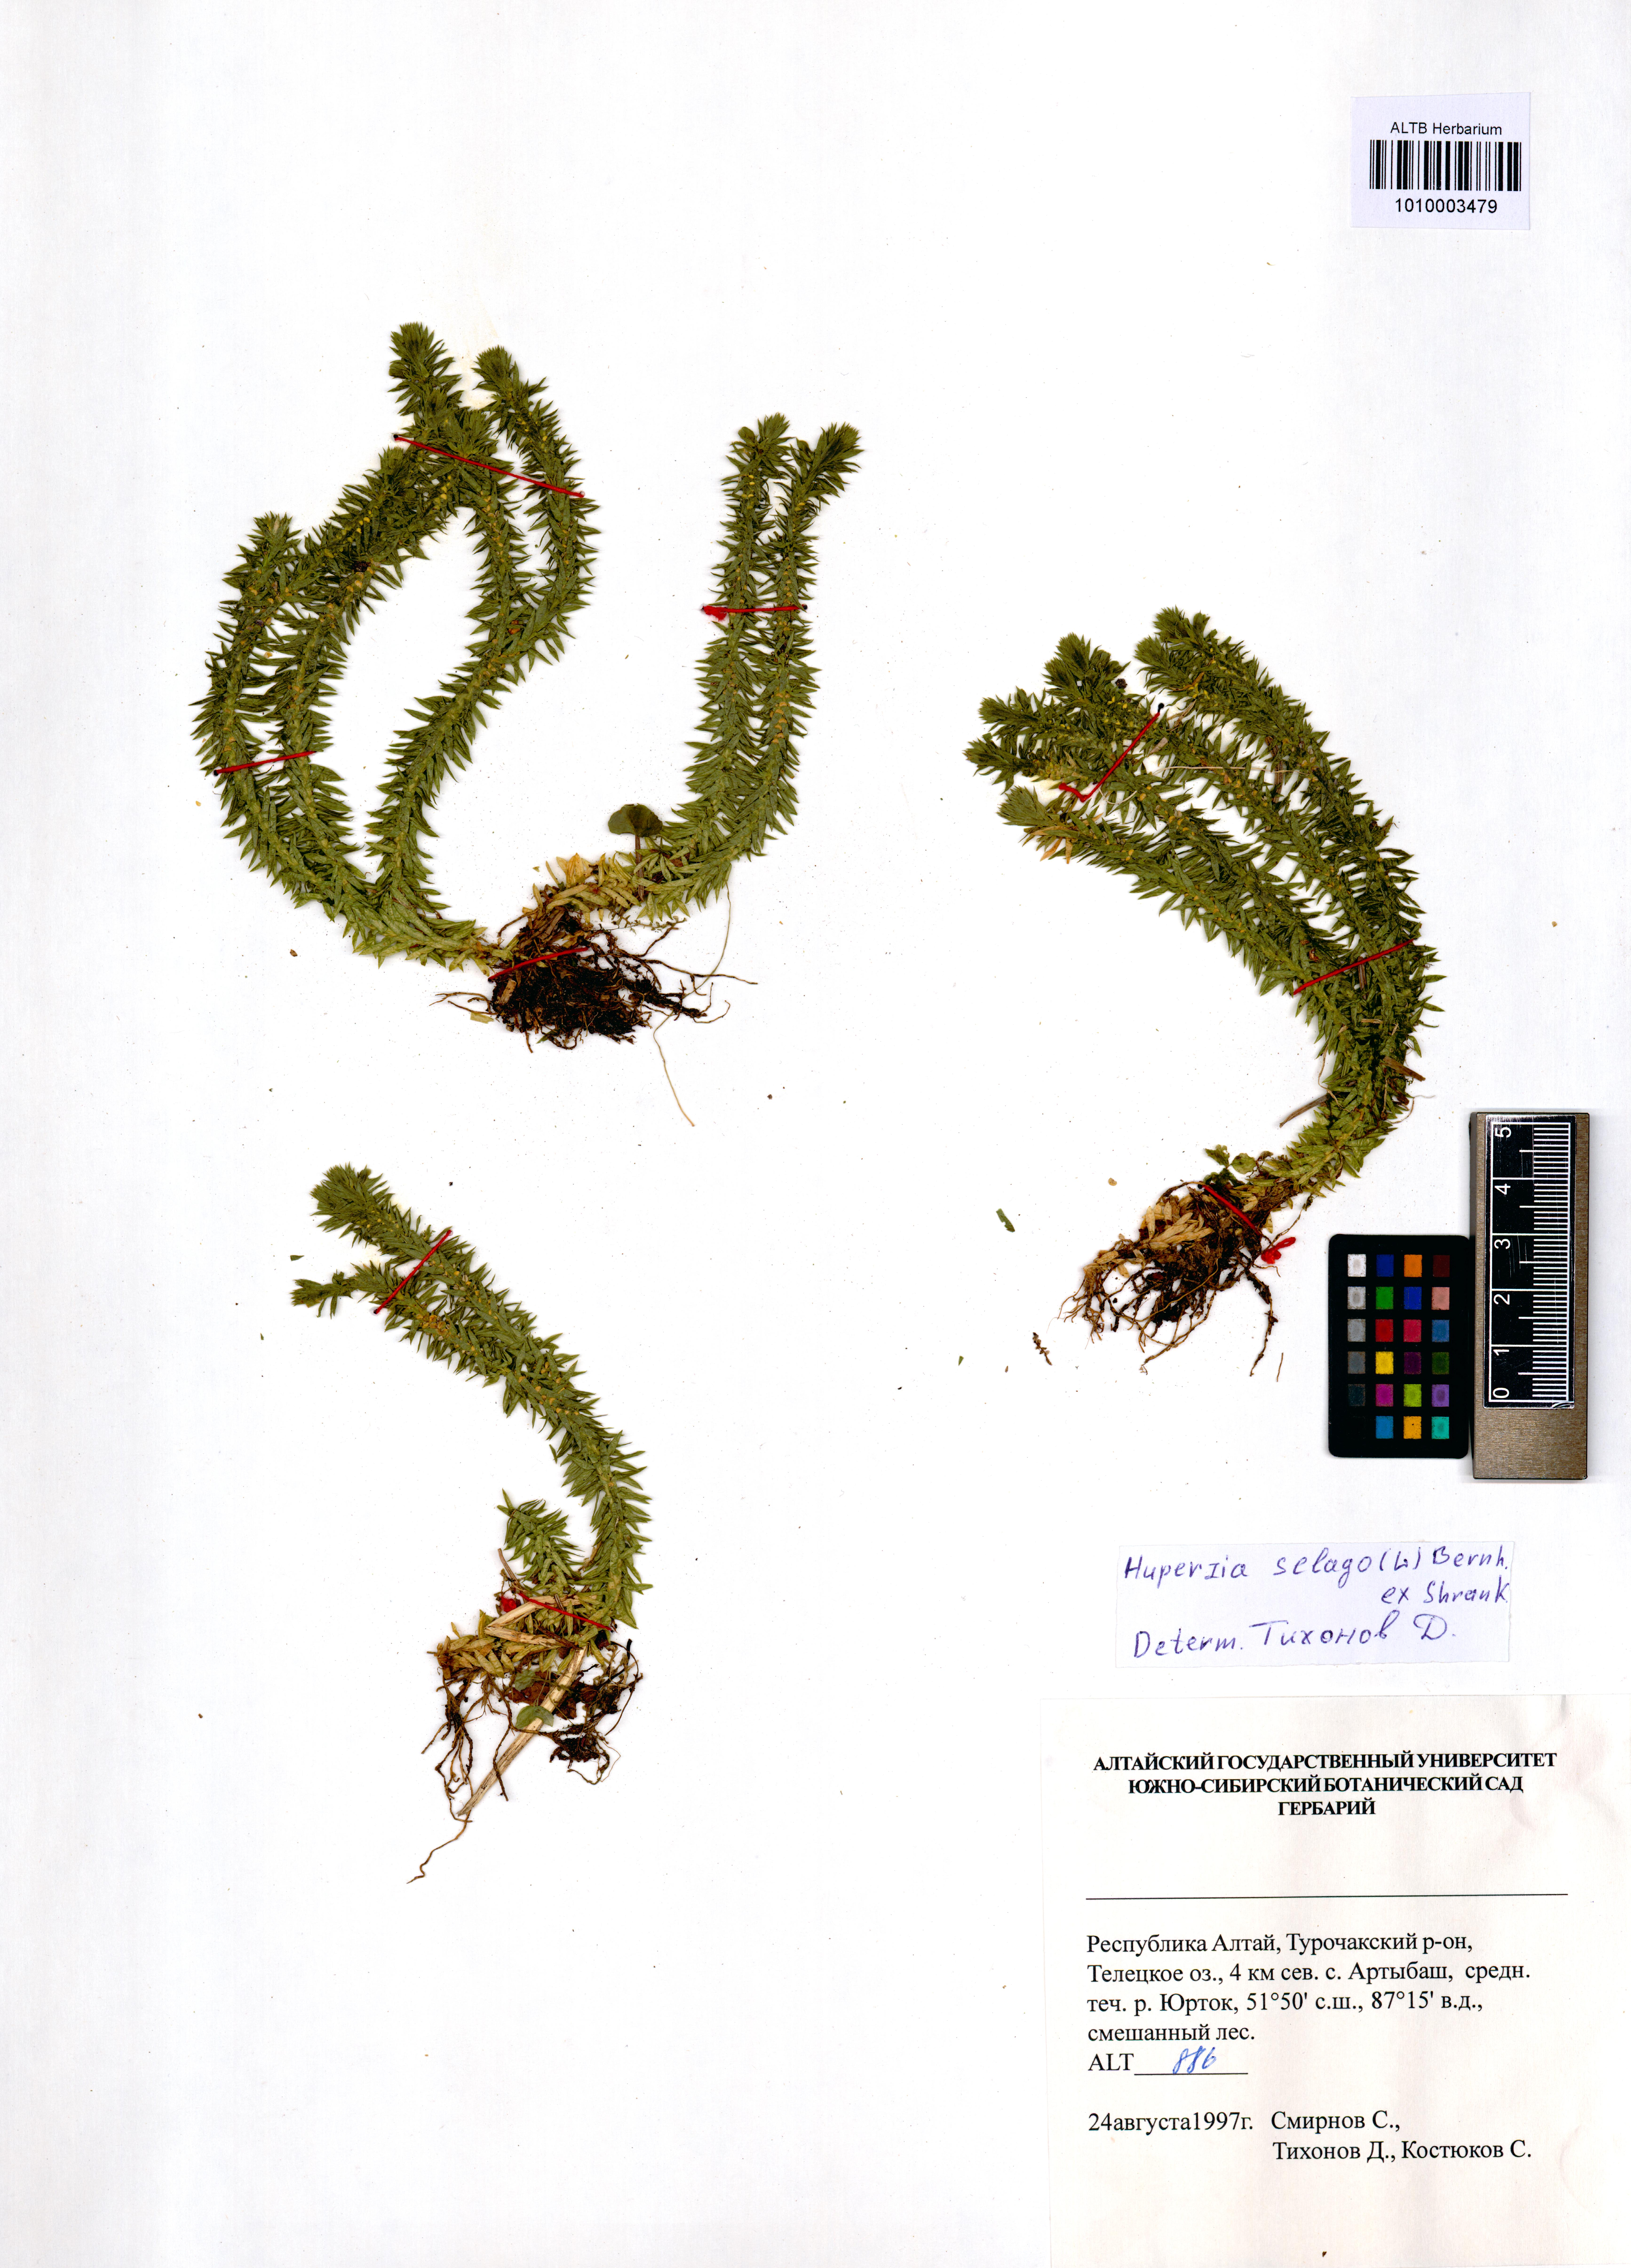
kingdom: Plantae
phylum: Tracheophyta
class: Lycopodiopsida
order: Lycopodiales
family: Lycopodiaceae
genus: Huperzia
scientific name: Huperzia selago
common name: Northern firmoss
